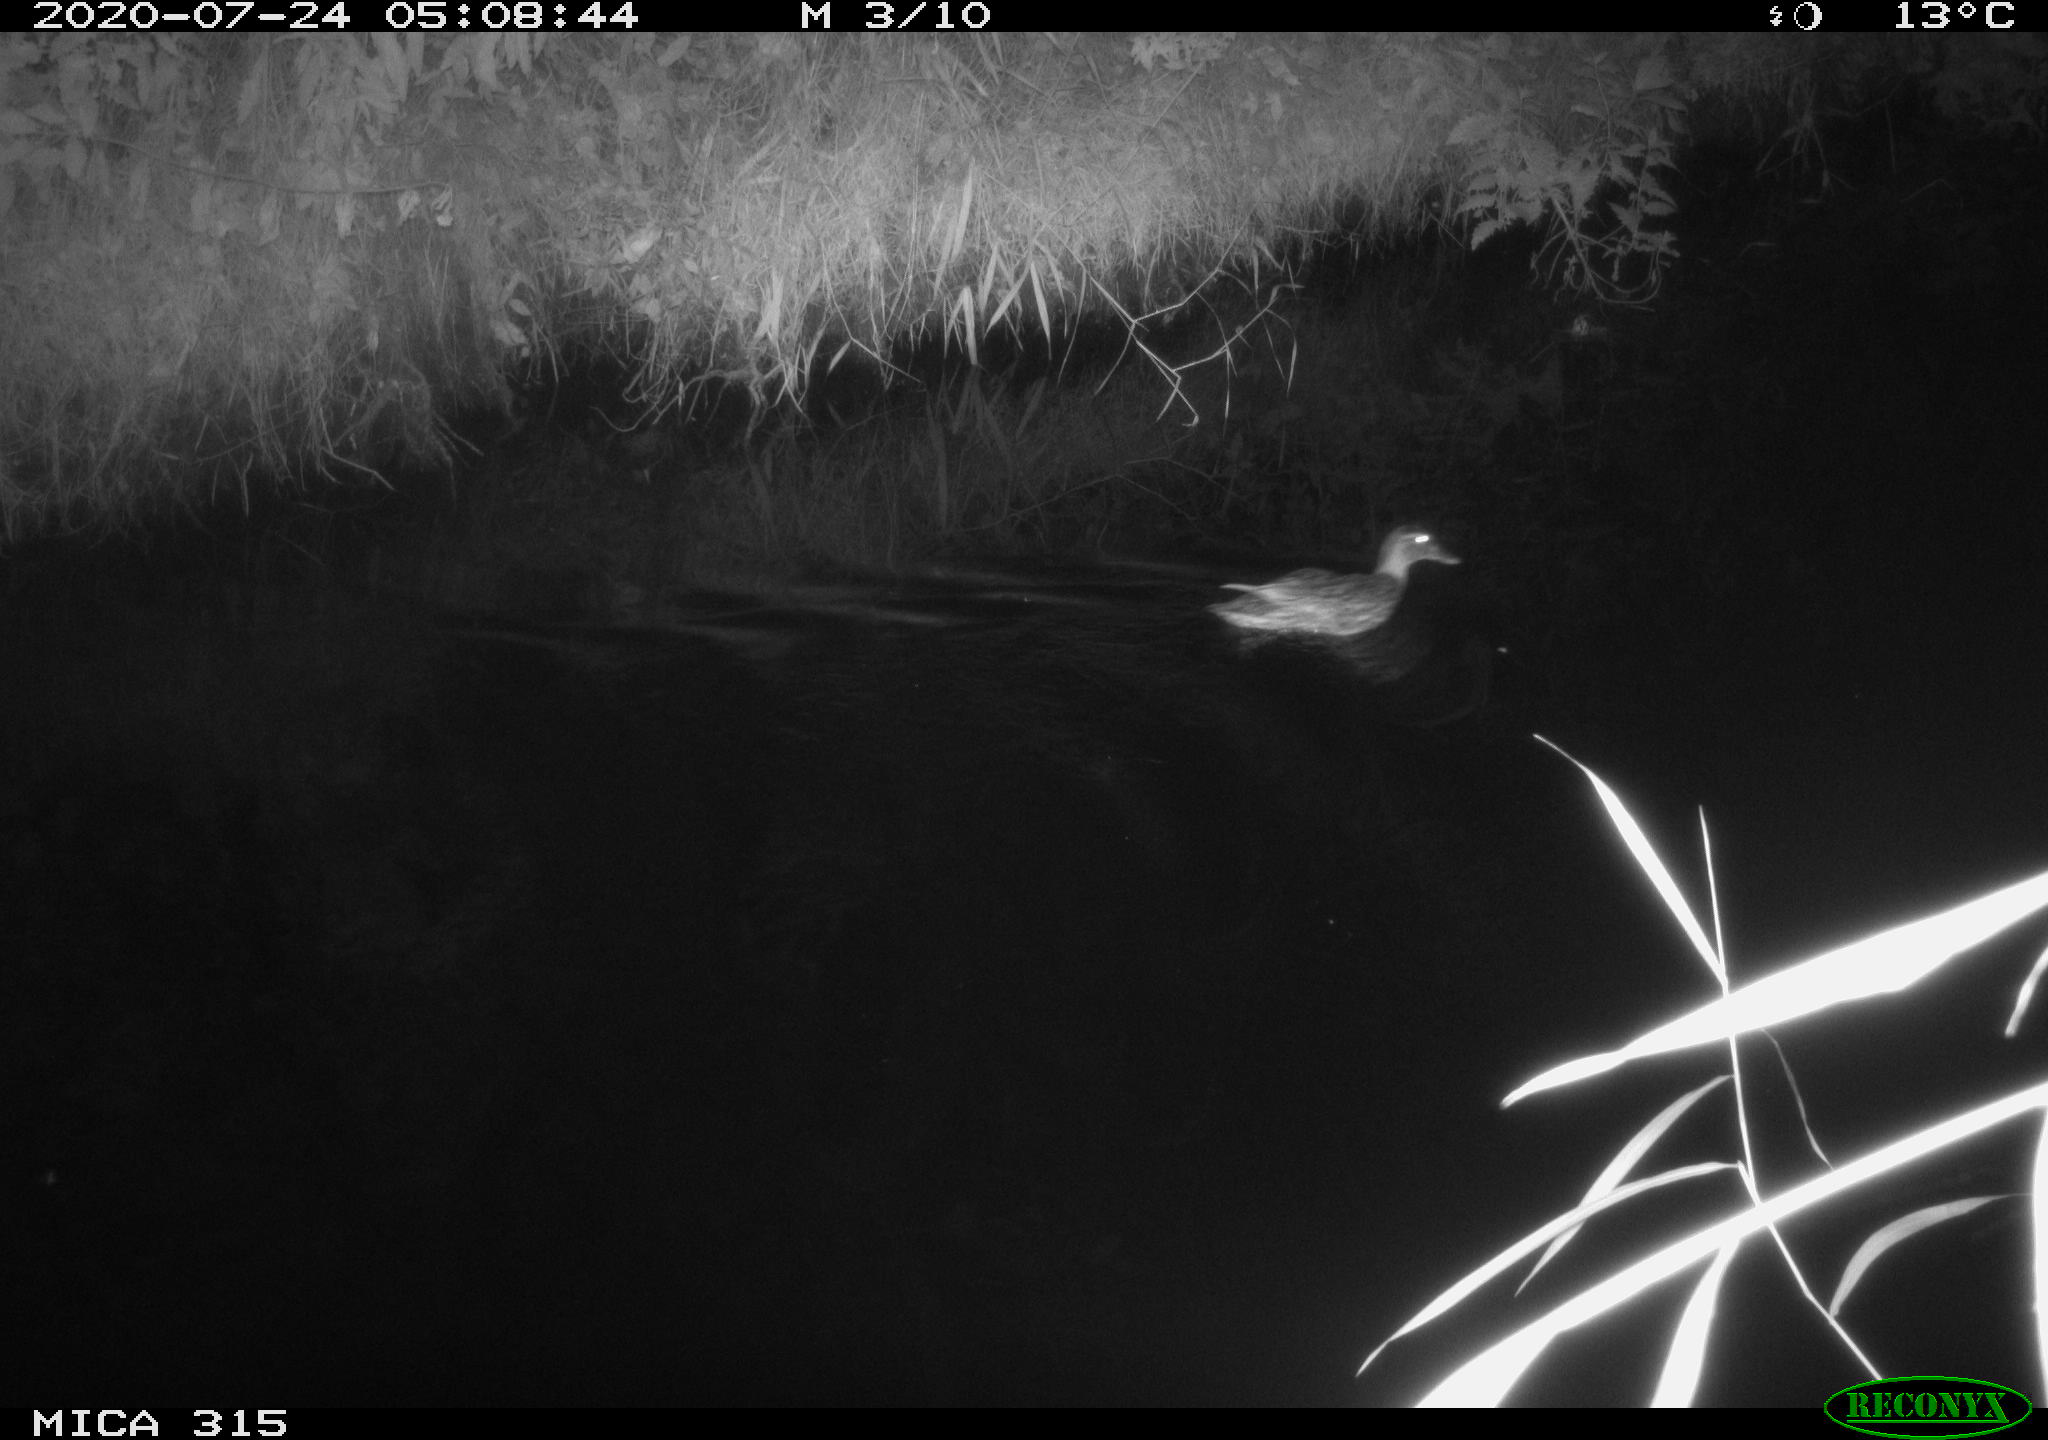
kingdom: Animalia
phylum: Chordata
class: Aves
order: Anseriformes
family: Anatidae
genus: Anas
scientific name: Anas platyrhynchos
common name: Mallard
